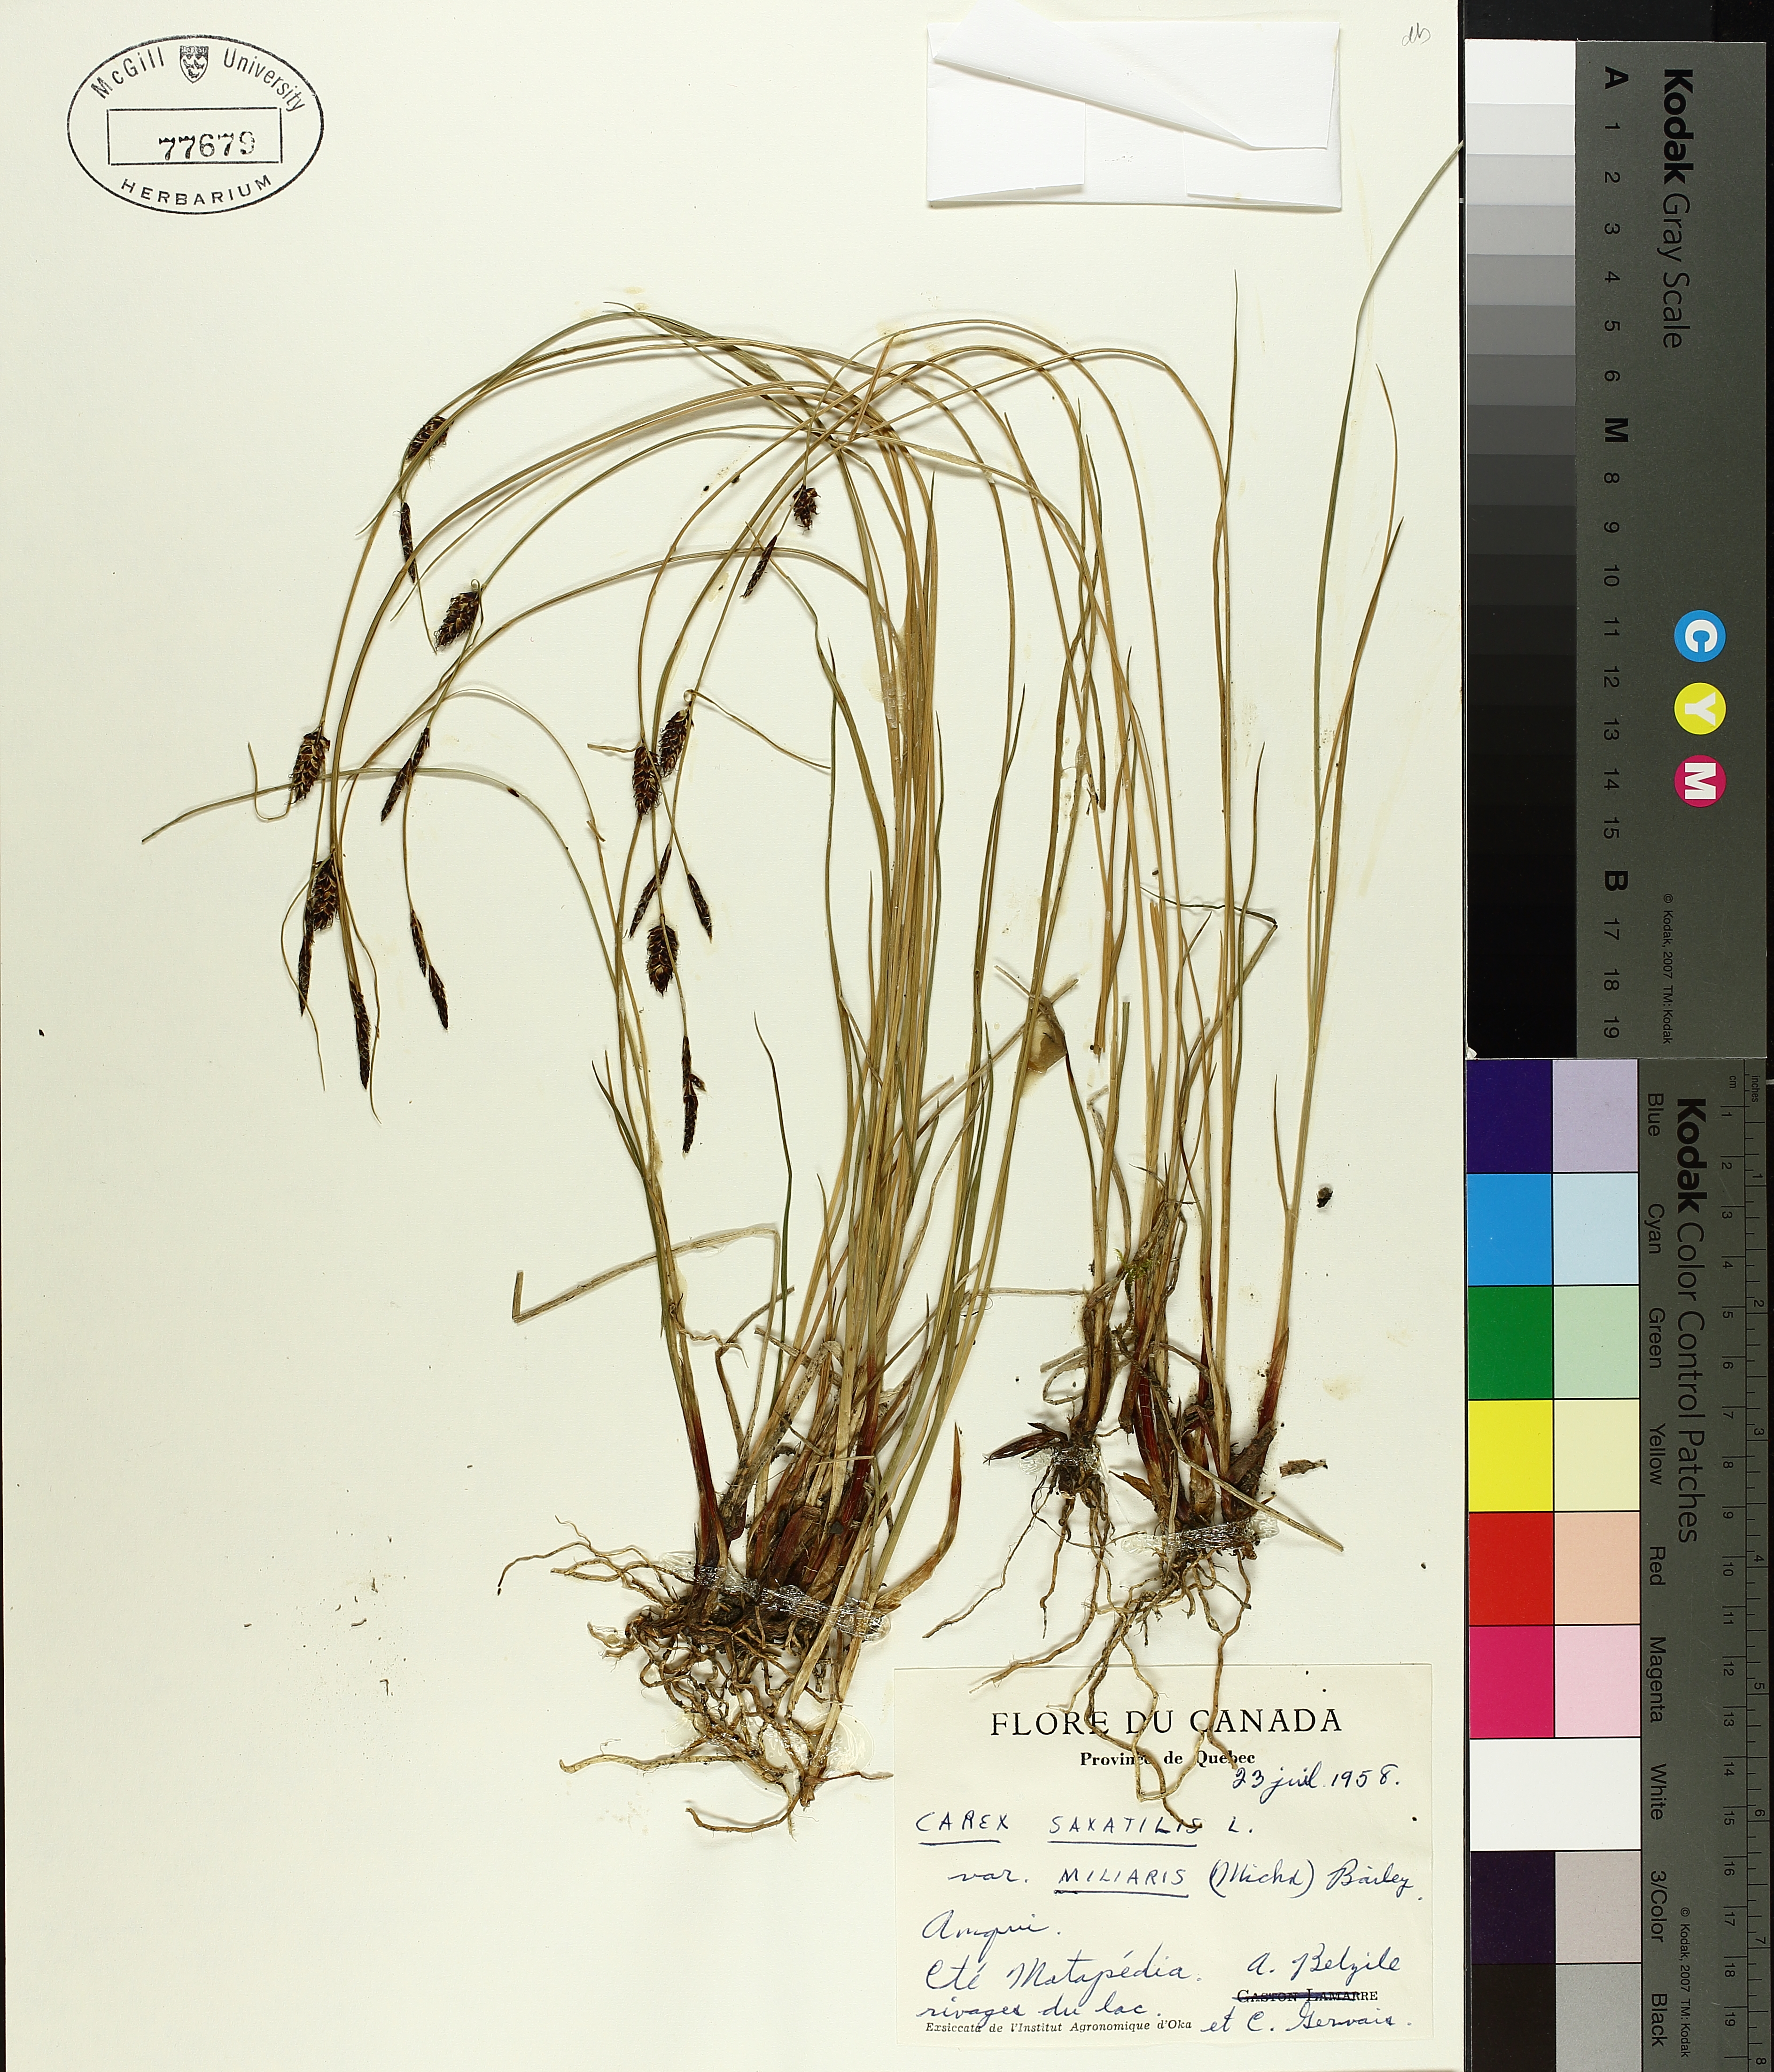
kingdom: Plantae
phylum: Tracheophyta
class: Liliopsida
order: Poales
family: Cyperaceae
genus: Carex
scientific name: Carex saxatilis
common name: Russet sedge
